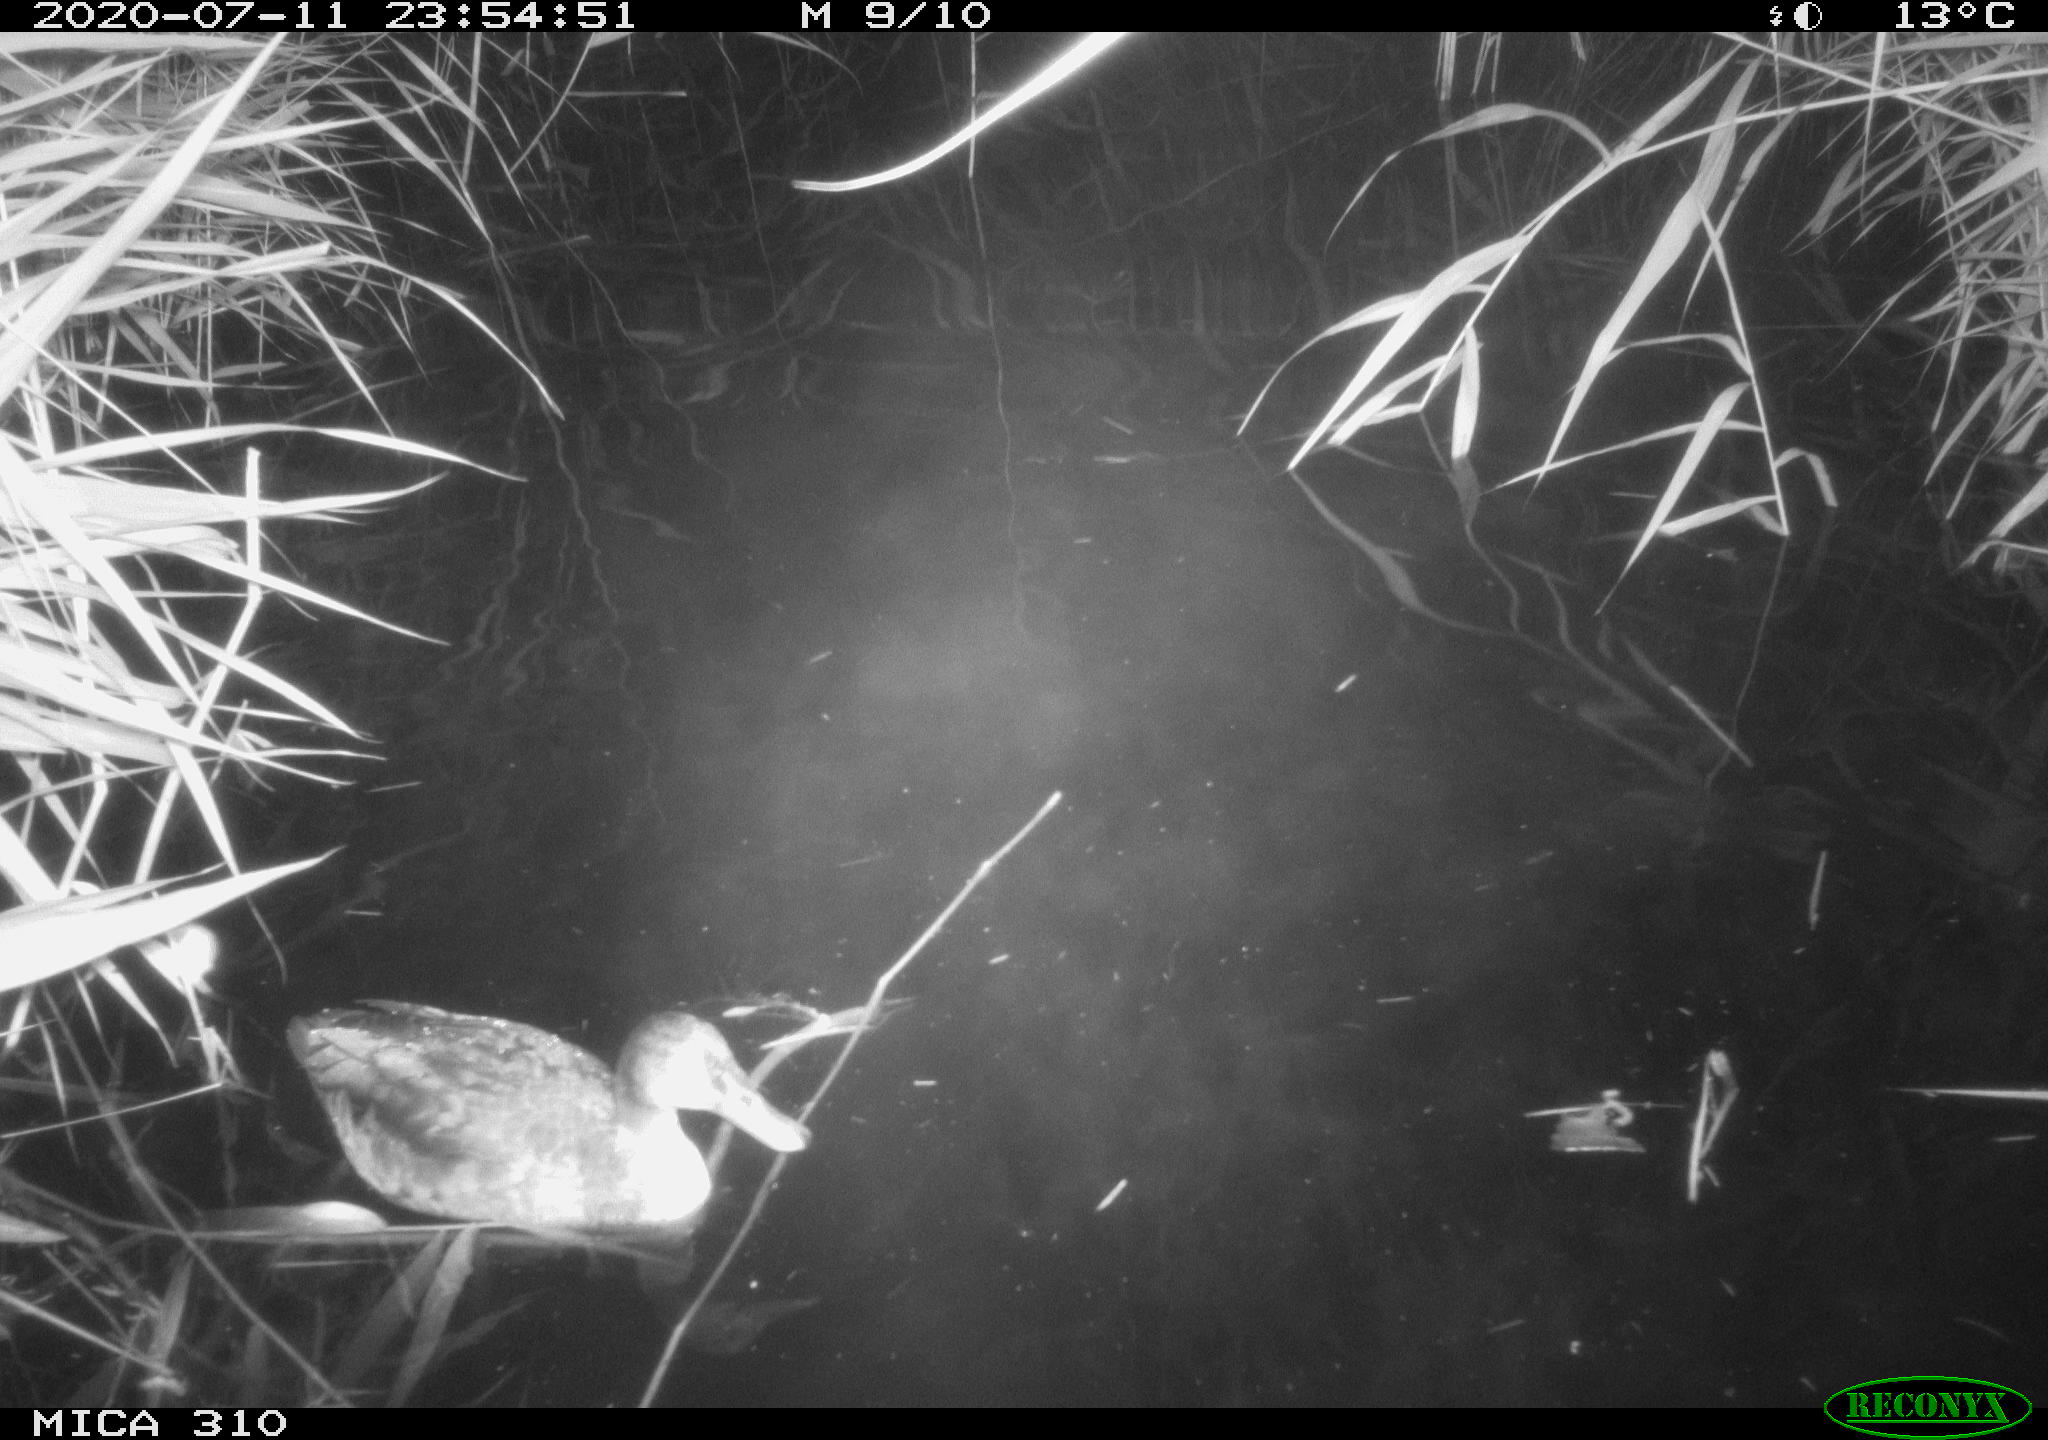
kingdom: Animalia
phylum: Chordata
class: Aves
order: Anseriformes
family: Anatidae
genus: Anas
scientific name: Anas platyrhynchos
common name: Mallard
